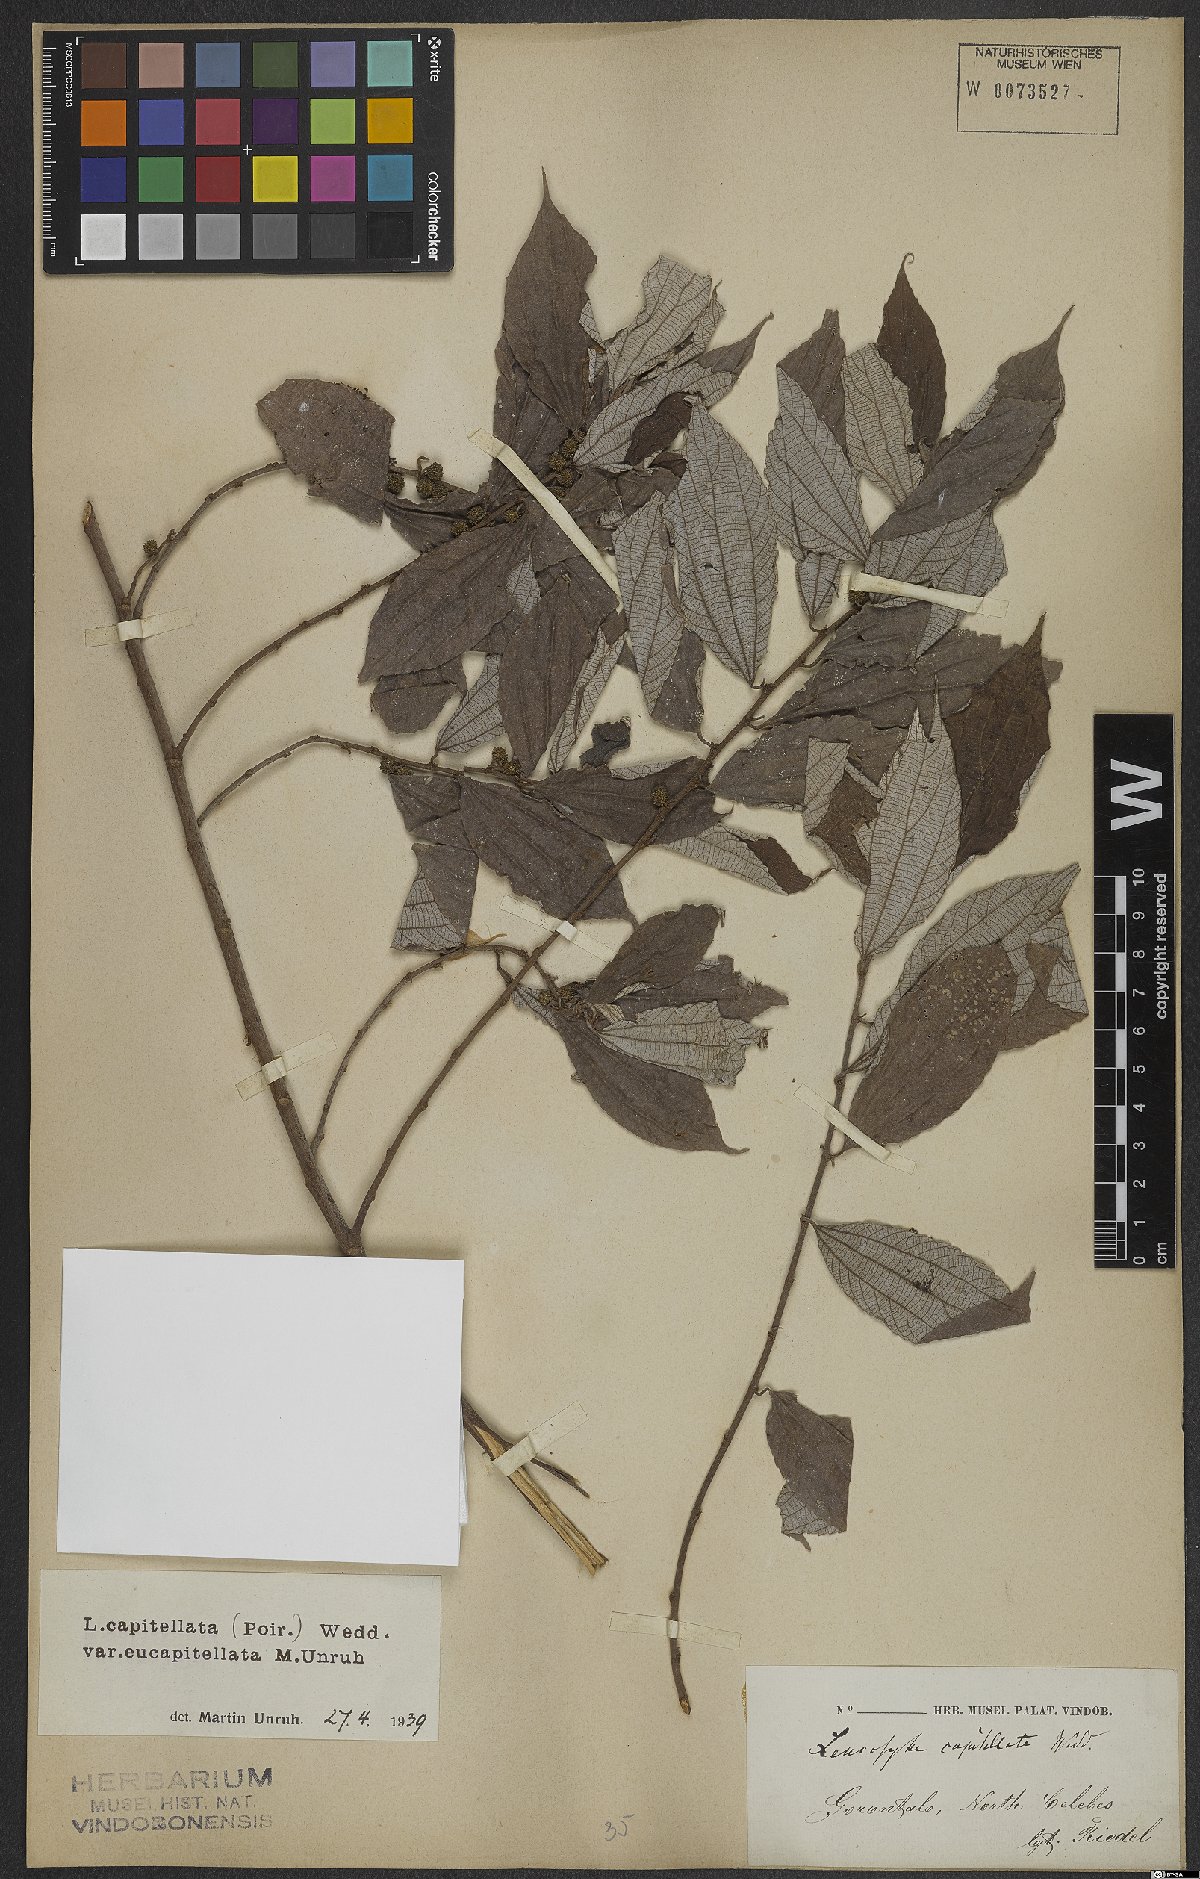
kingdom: Plantae
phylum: Tracheophyta
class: Magnoliopsida
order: Rosales
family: Urticaceae
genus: Leucosyke
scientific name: Leucosyke capitellata
